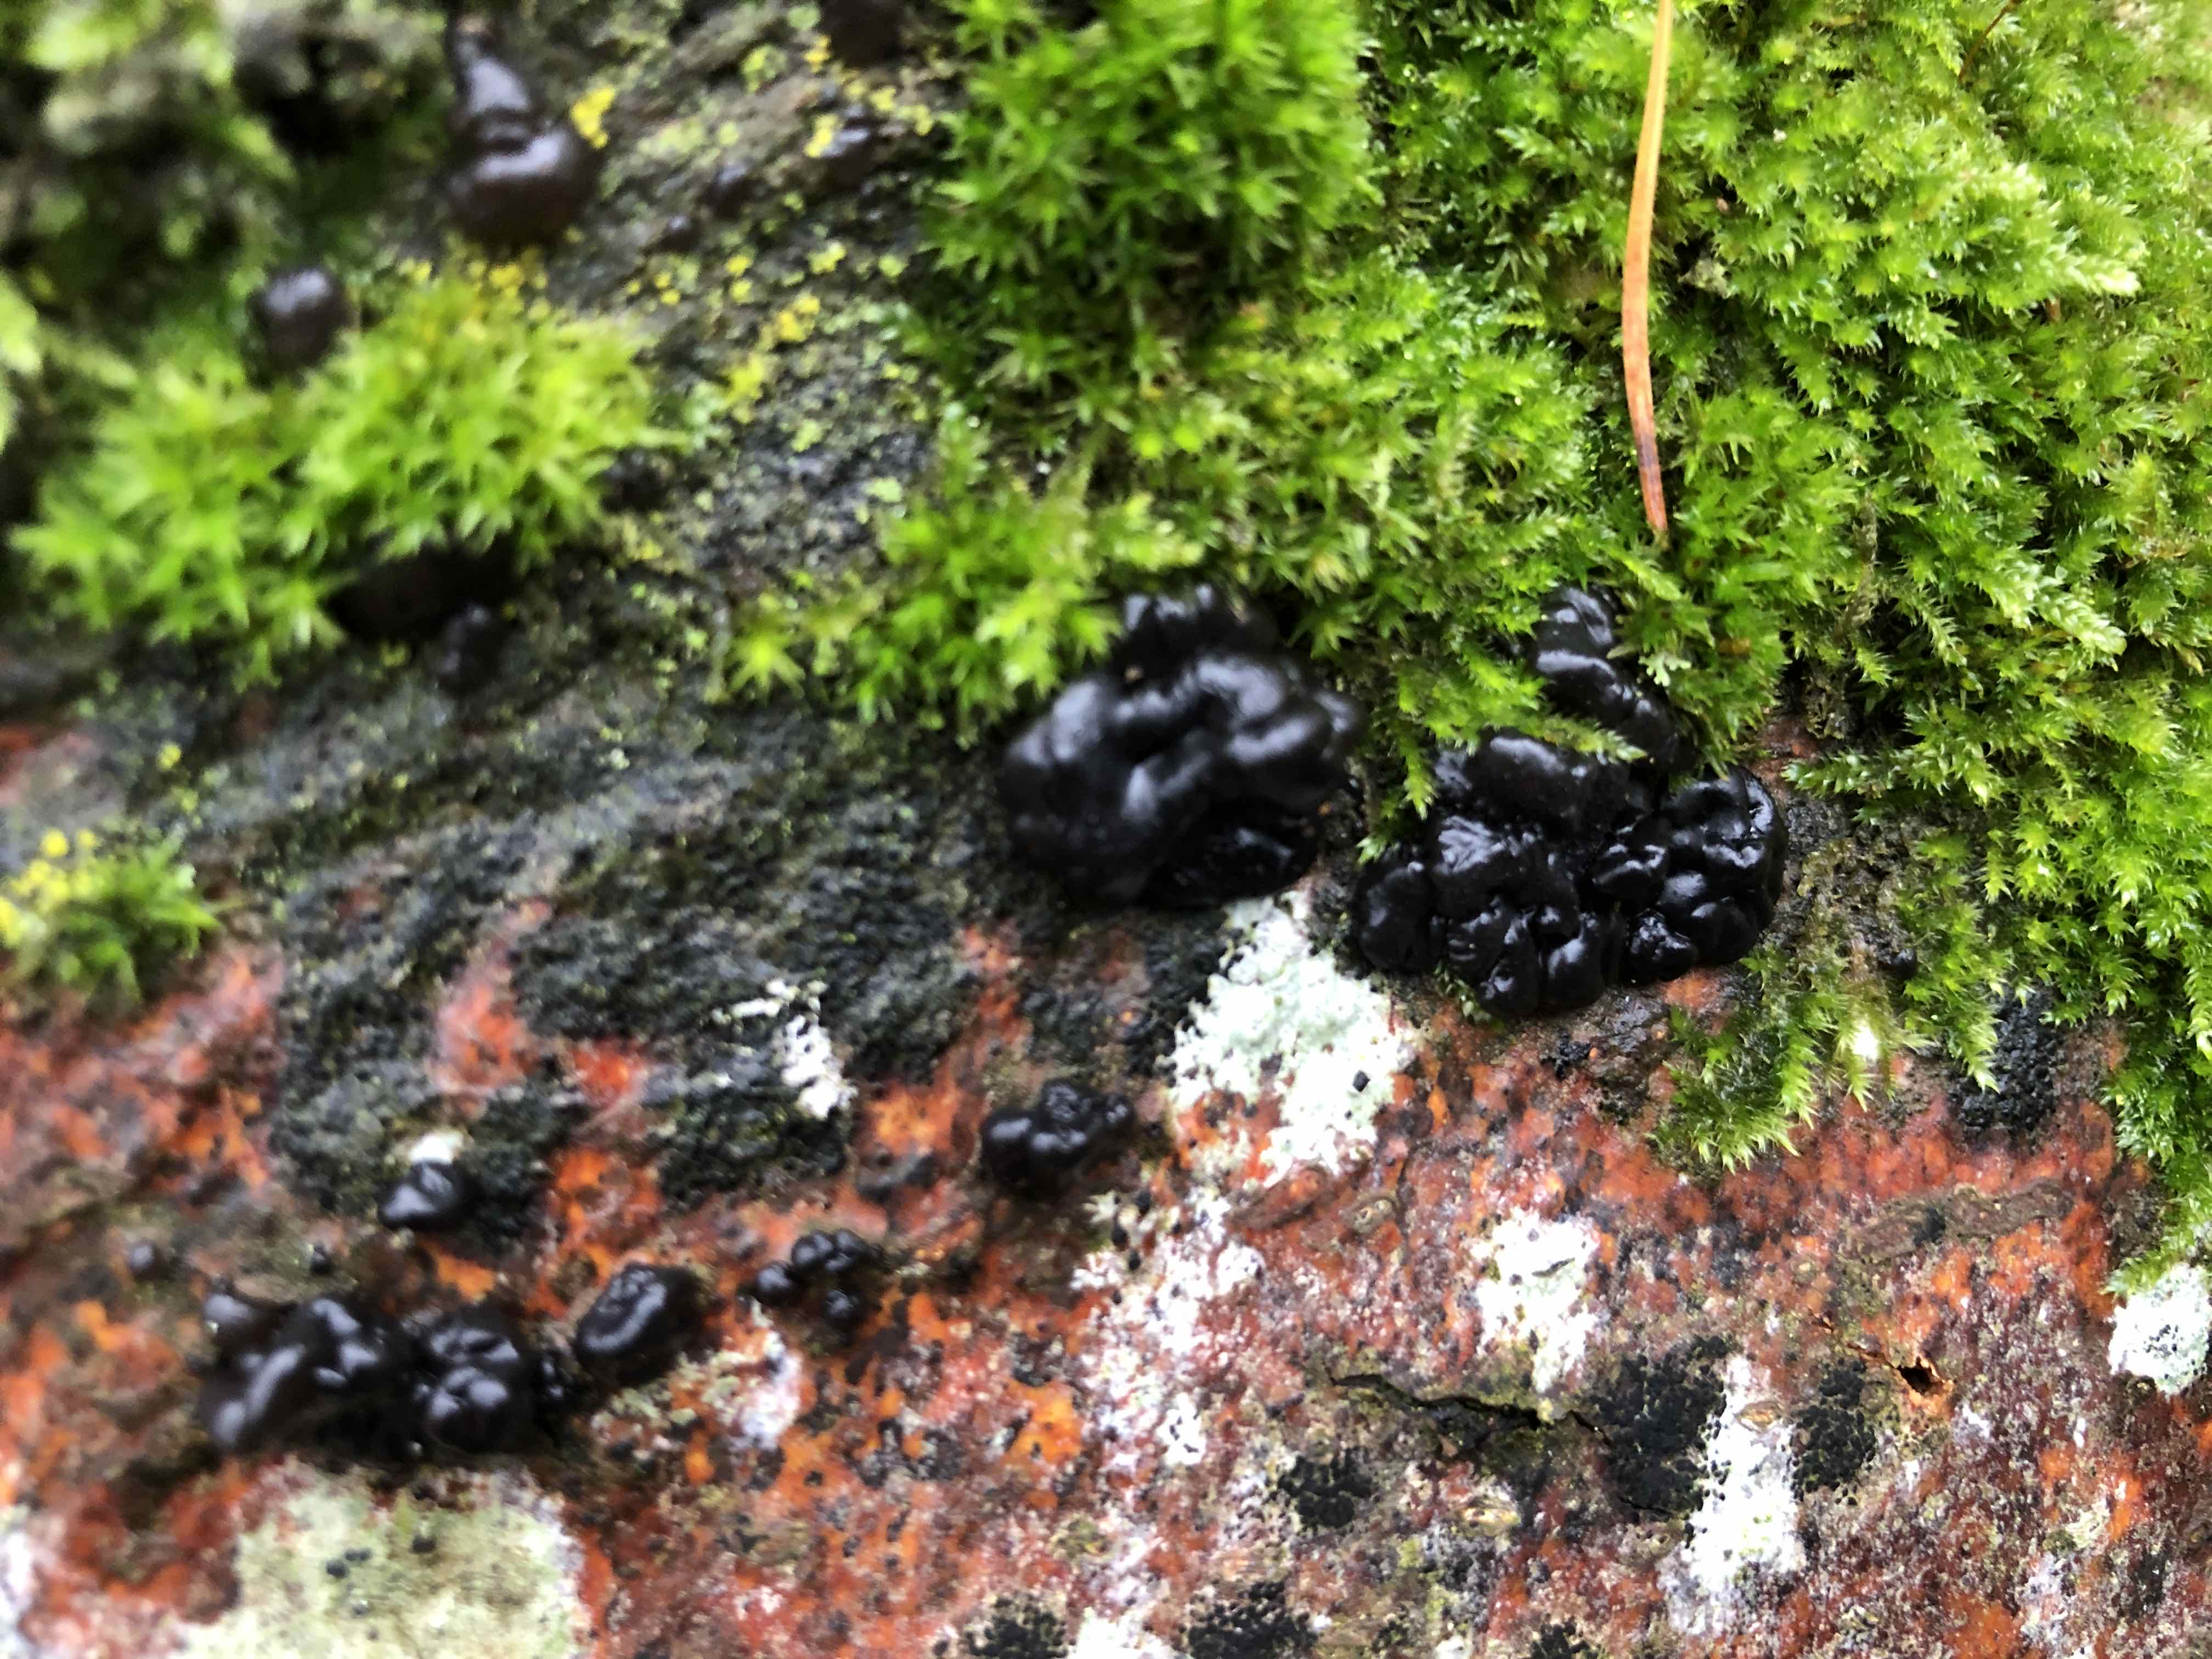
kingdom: Fungi
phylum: Basidiomycota
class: Agaricomycetes
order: Auriculariales
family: Auriculariaceae
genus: Exidia
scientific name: Exidia nigricans
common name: almindelig bævretop
